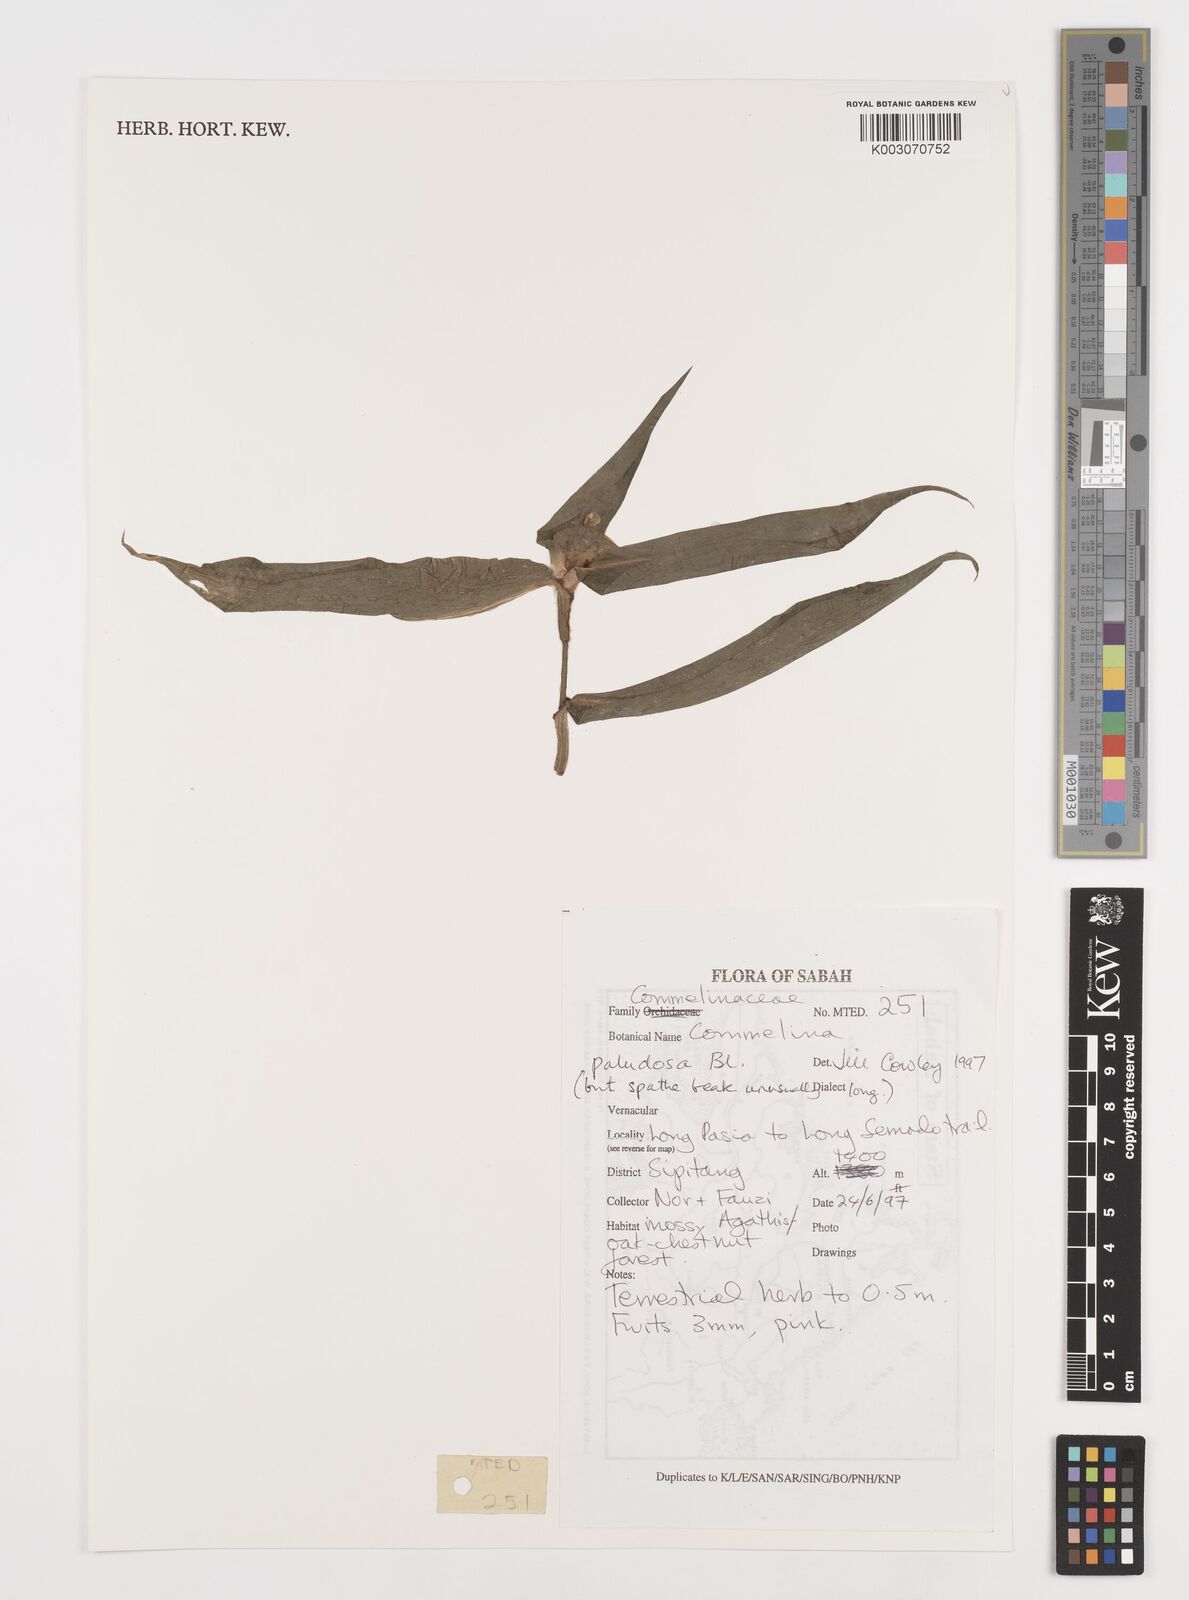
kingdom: Plantae
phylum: Tracheophyta
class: Liliopsida
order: Commelinales
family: Commelinaceae
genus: Commelina
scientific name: Commelina paludosa
